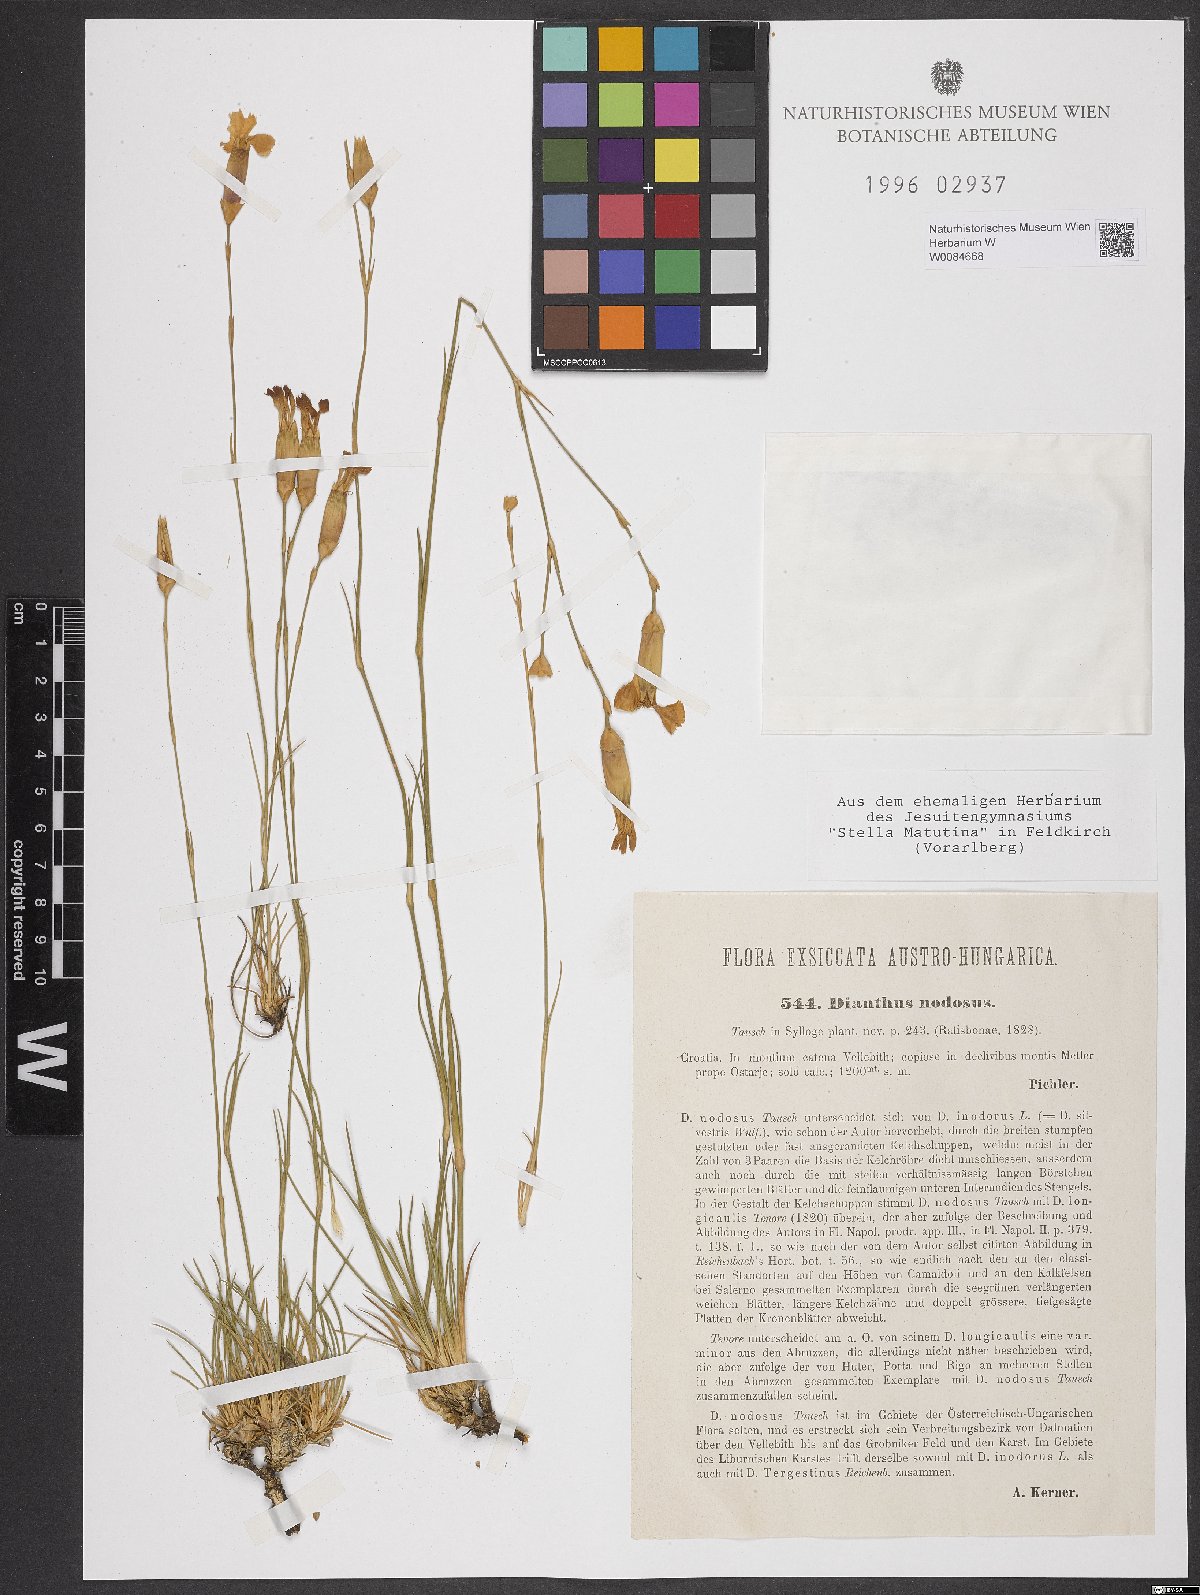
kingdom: Plantae
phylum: Tracheophyta
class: Magnoliopsida
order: Caryophyllales
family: Caryophyllaceae
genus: Dianthus
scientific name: Dianthus sylvestris
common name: Wood pink
